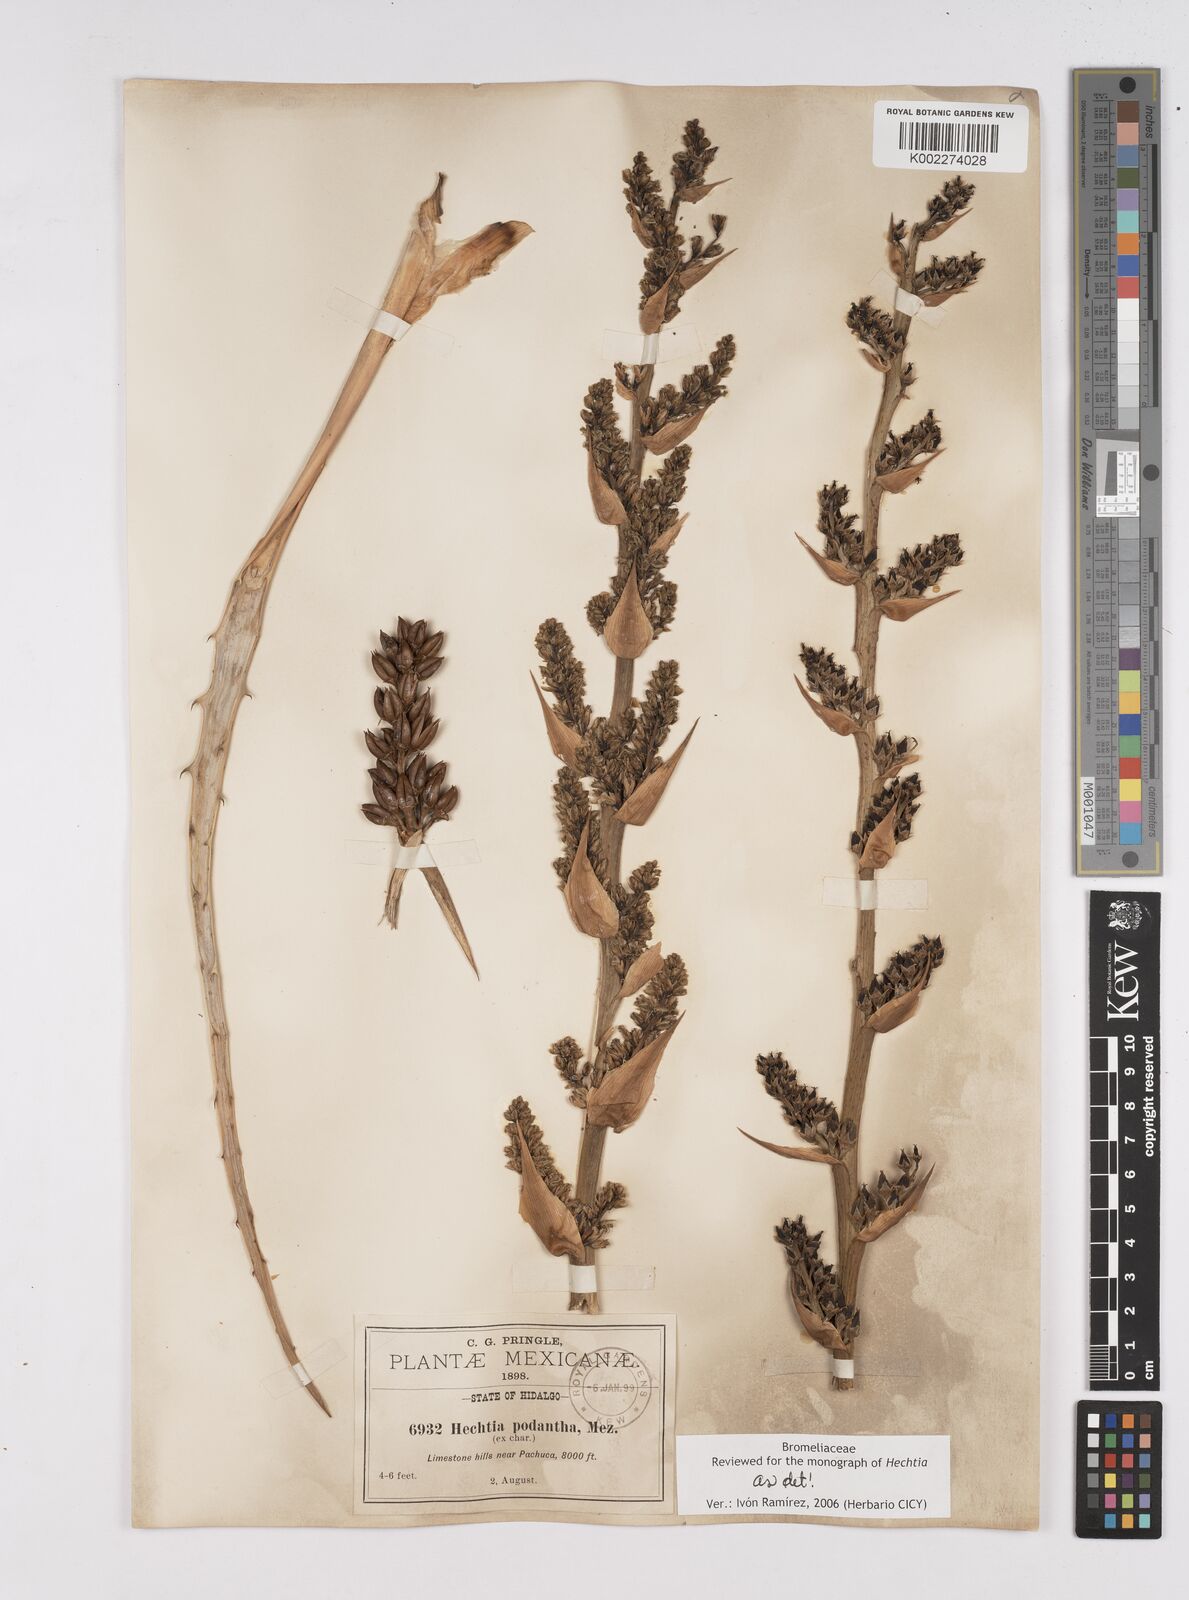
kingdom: Plantae
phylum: Tracheophyta
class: Liliopsida
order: Poales
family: Bromeliaceae
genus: Hechtia
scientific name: Hechtia podantha
